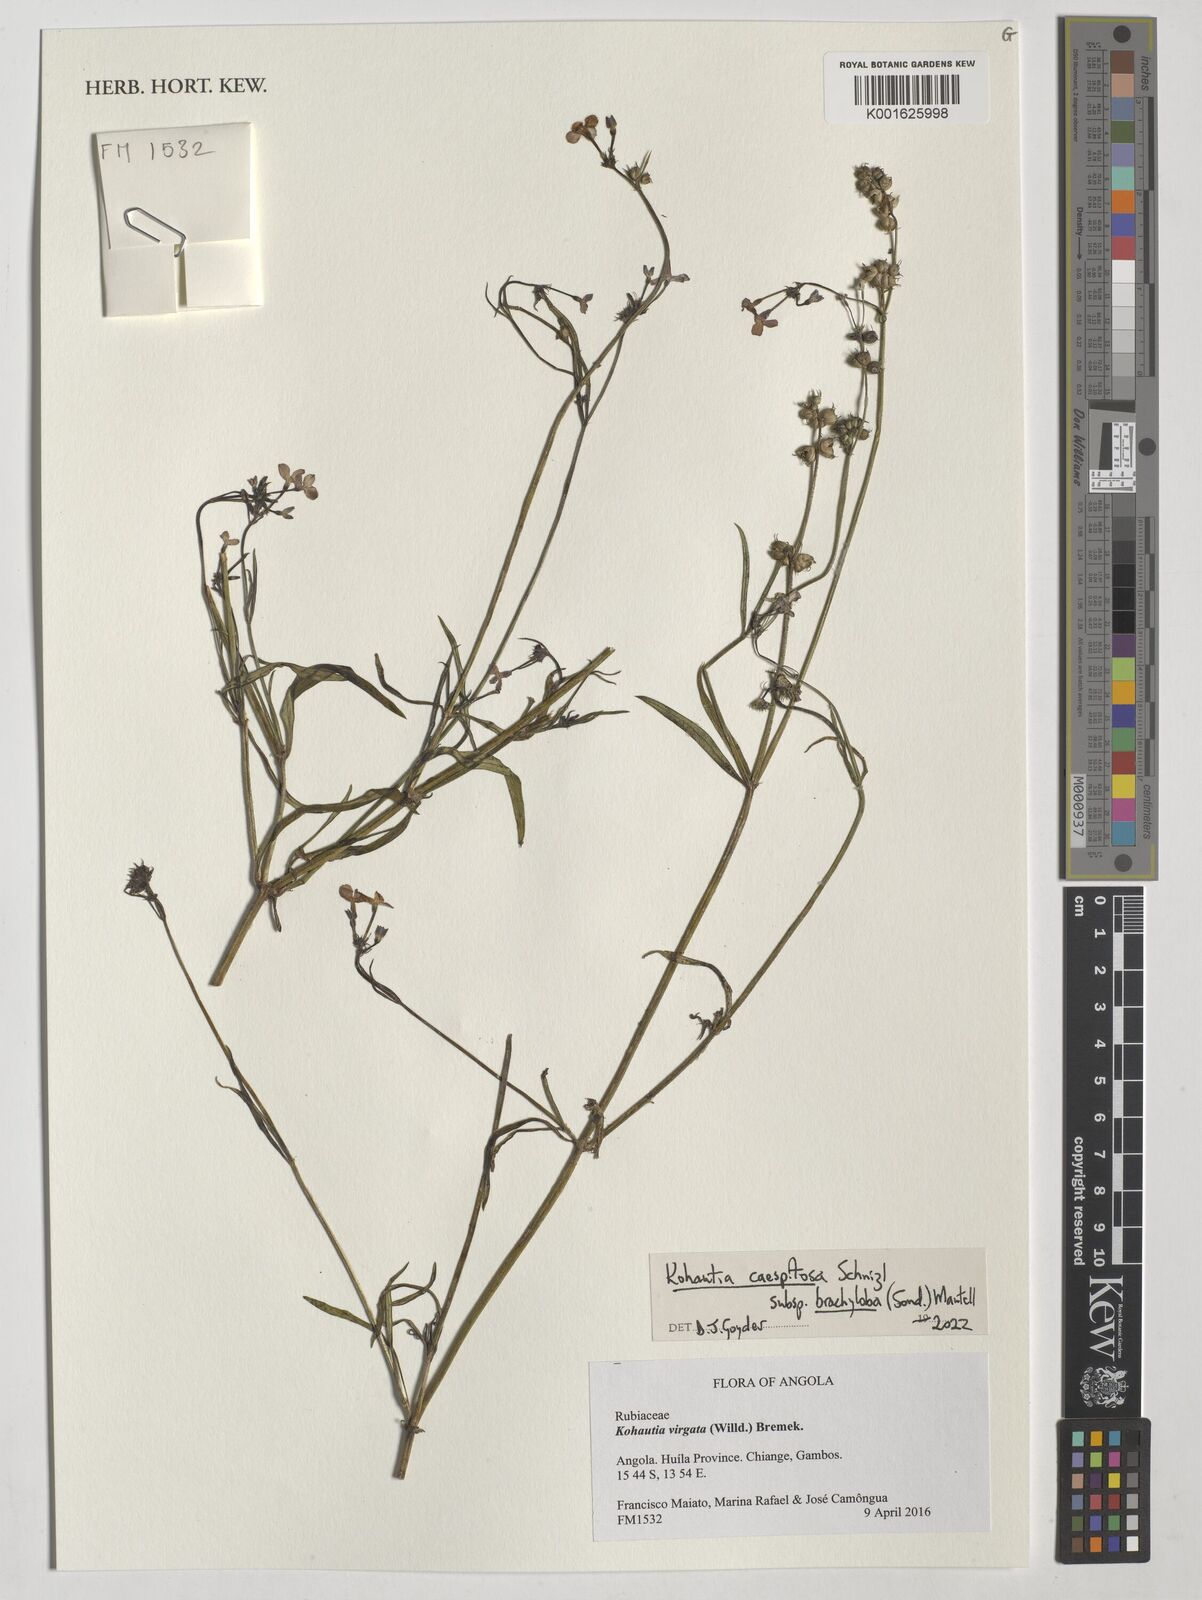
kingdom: Plantae
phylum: Tracheophyta
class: Magnoliopsida
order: Gentianales
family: Rubiaceae
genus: Kohautia
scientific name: Kohautia caespitosa
